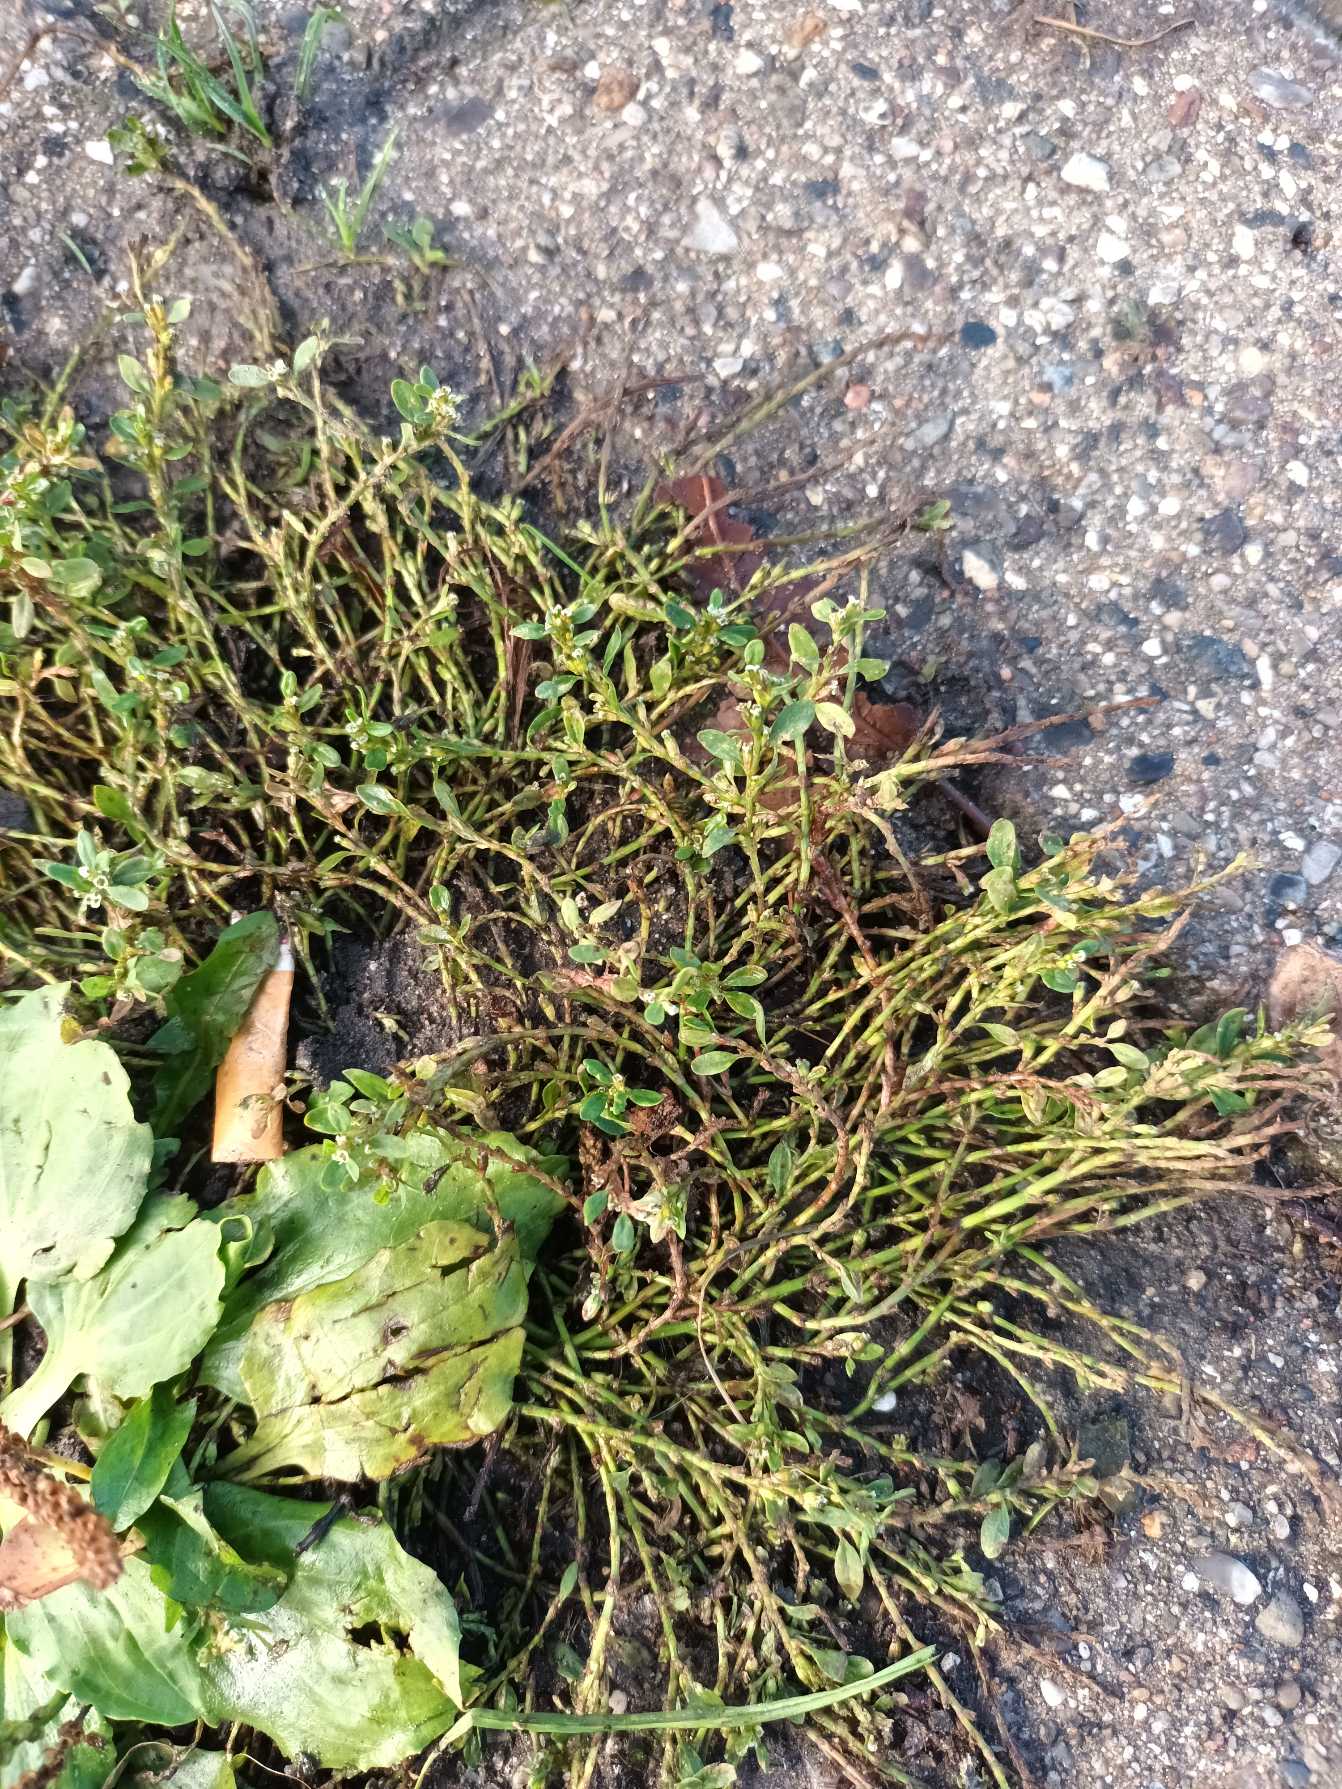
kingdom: Plantae
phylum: Tracheophyta
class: Magnoliopsida
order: Caryophyllales
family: Polygonaceae
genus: Polygonum
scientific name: Polygonum arenastrum
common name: Liggende vej-pileurt
